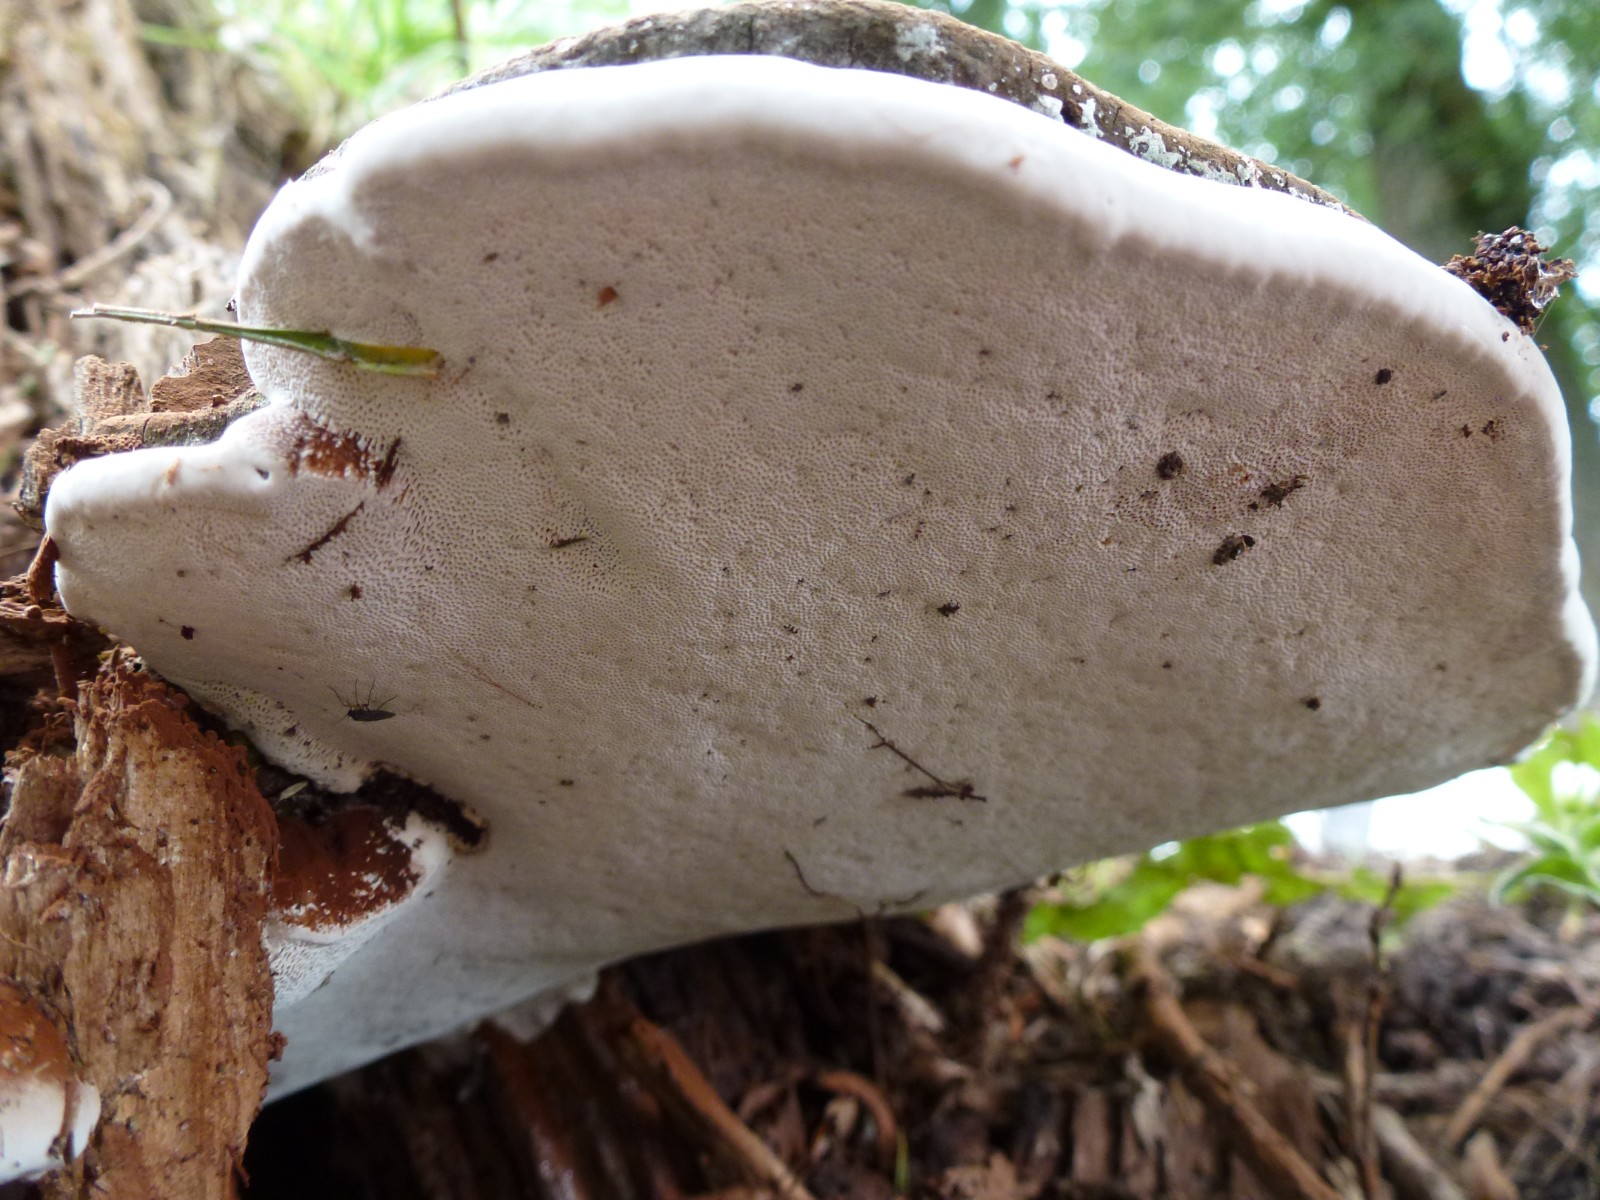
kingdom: Fungi
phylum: Basidiomycota
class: Agaricomycetes
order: Polyporales
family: Polyporaceae
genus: Ganoderma
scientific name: Ganoderma applanatum
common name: flad lakporesvamp
